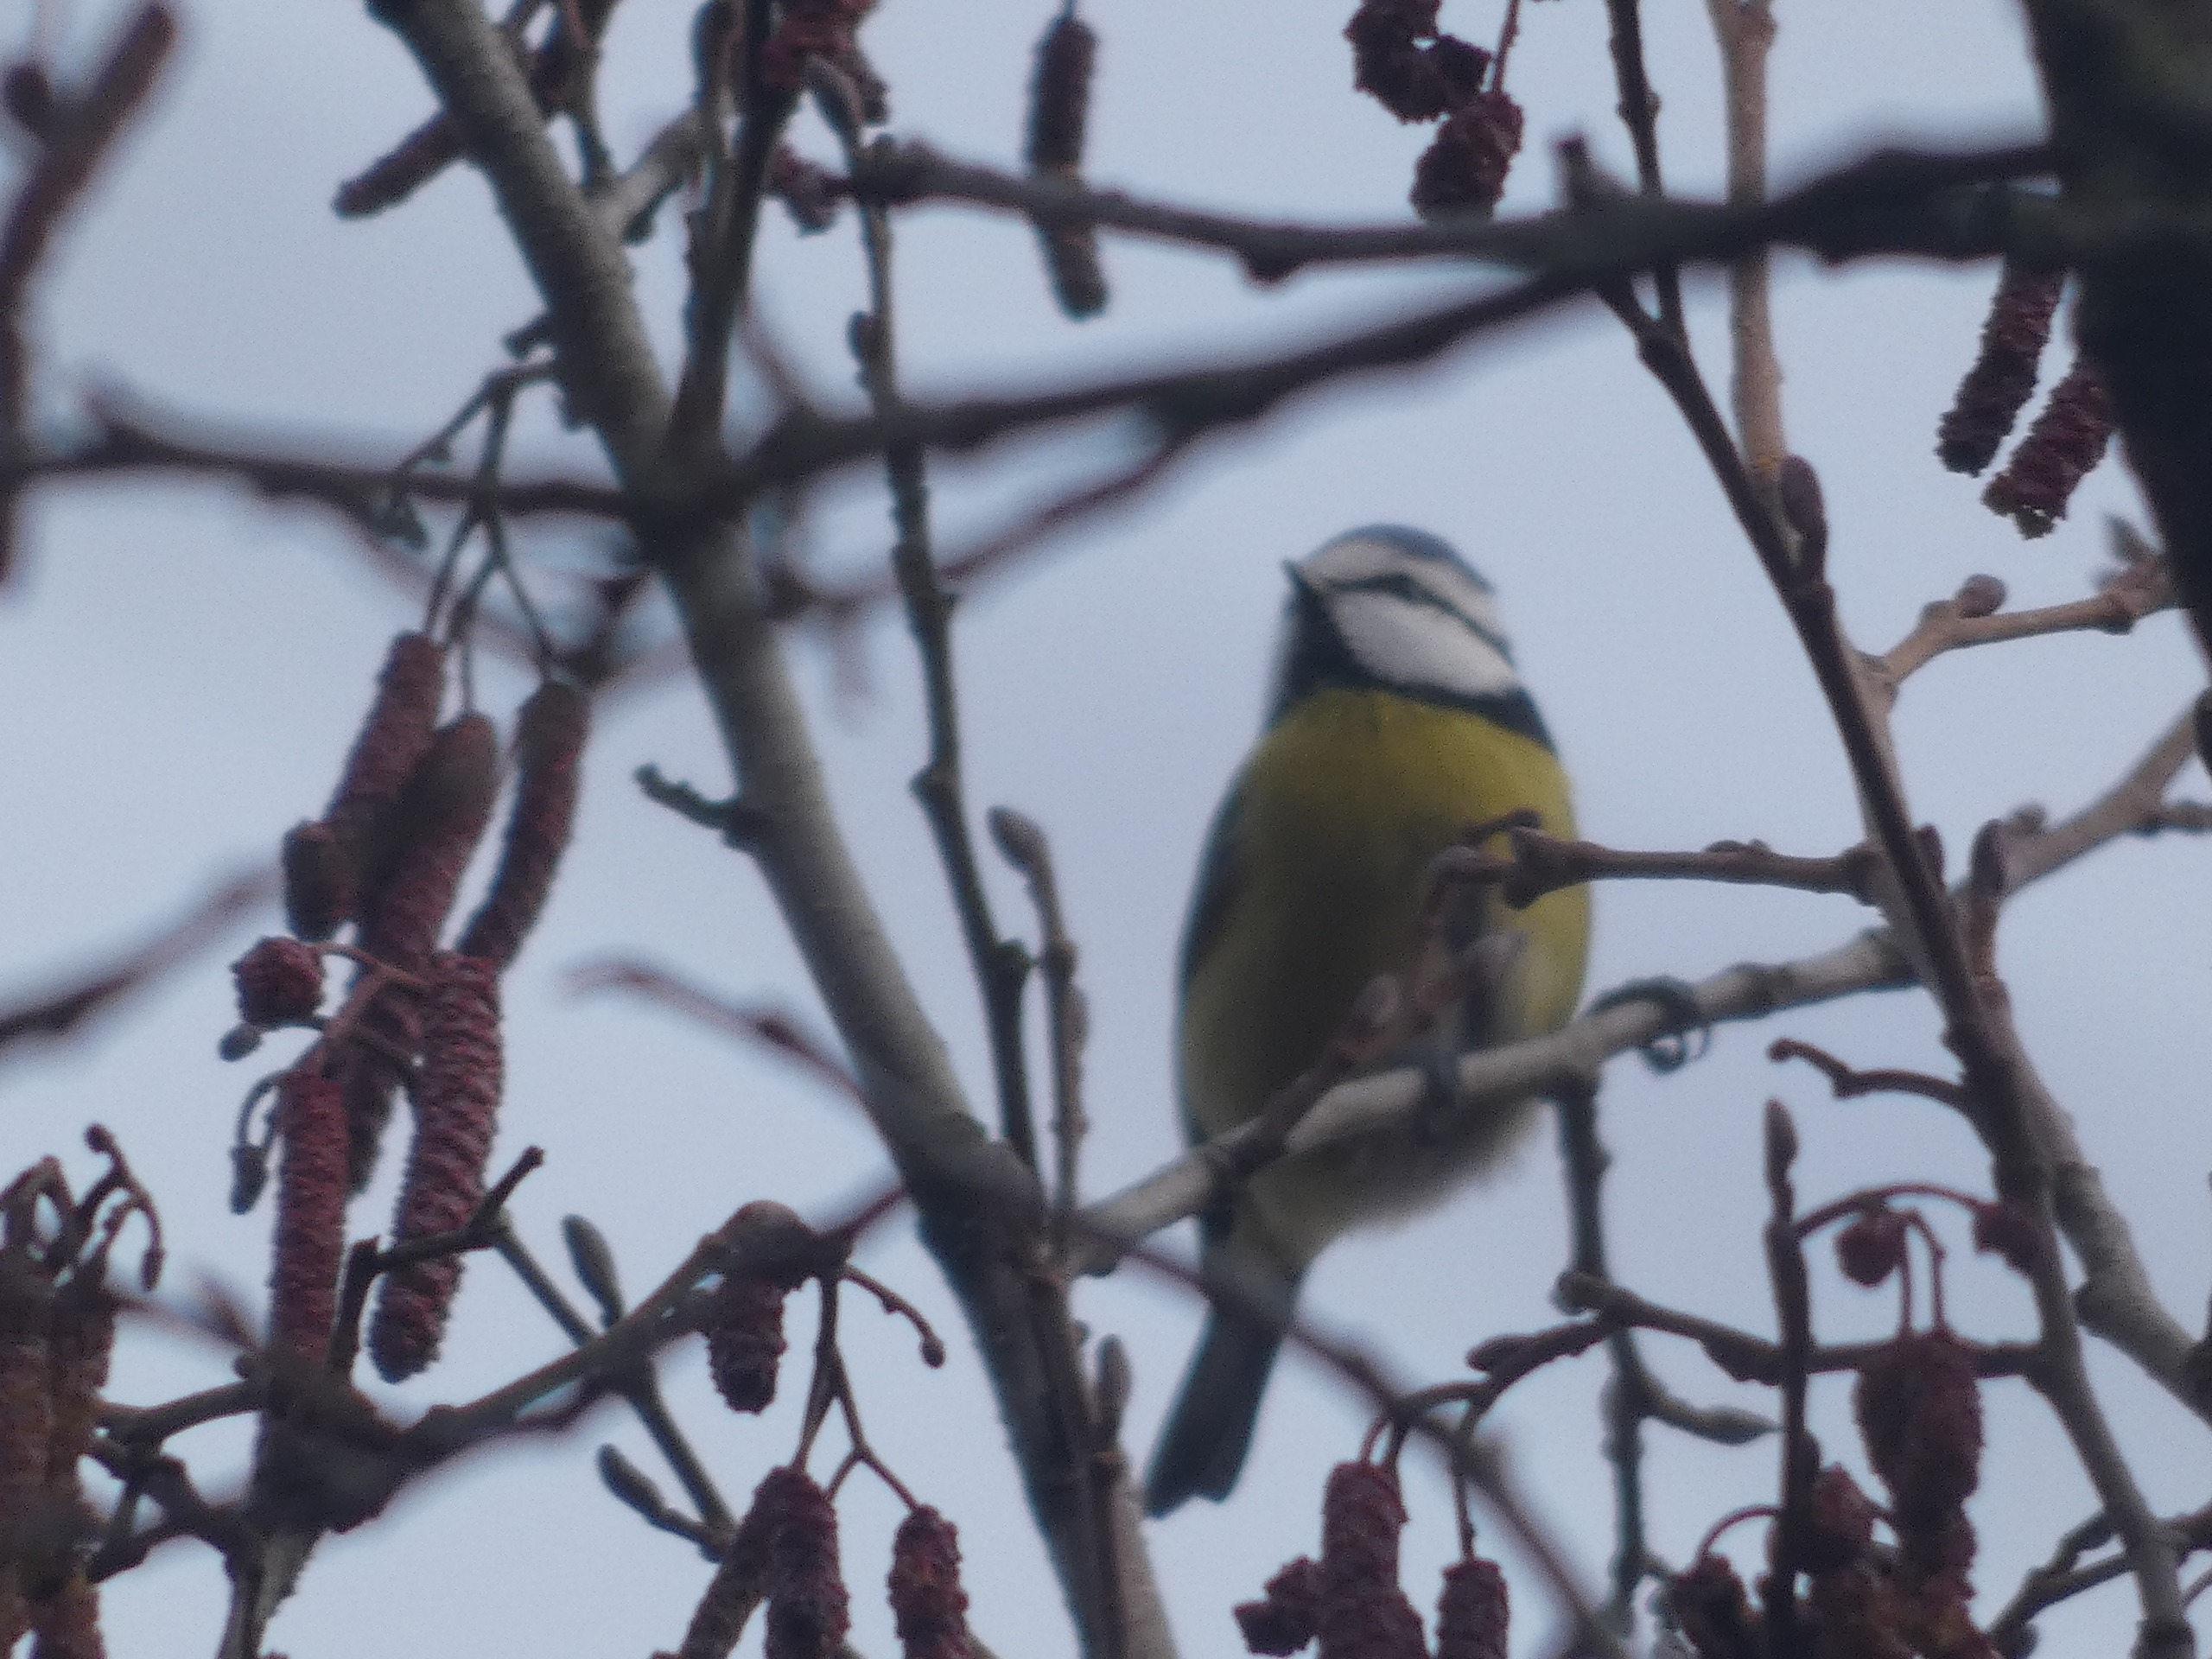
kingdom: Animalia
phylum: Chordata
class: Aves
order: Passeriformes
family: Paridae
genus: Cyanistes
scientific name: Cyanistes caeruleus
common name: Blåmejse
